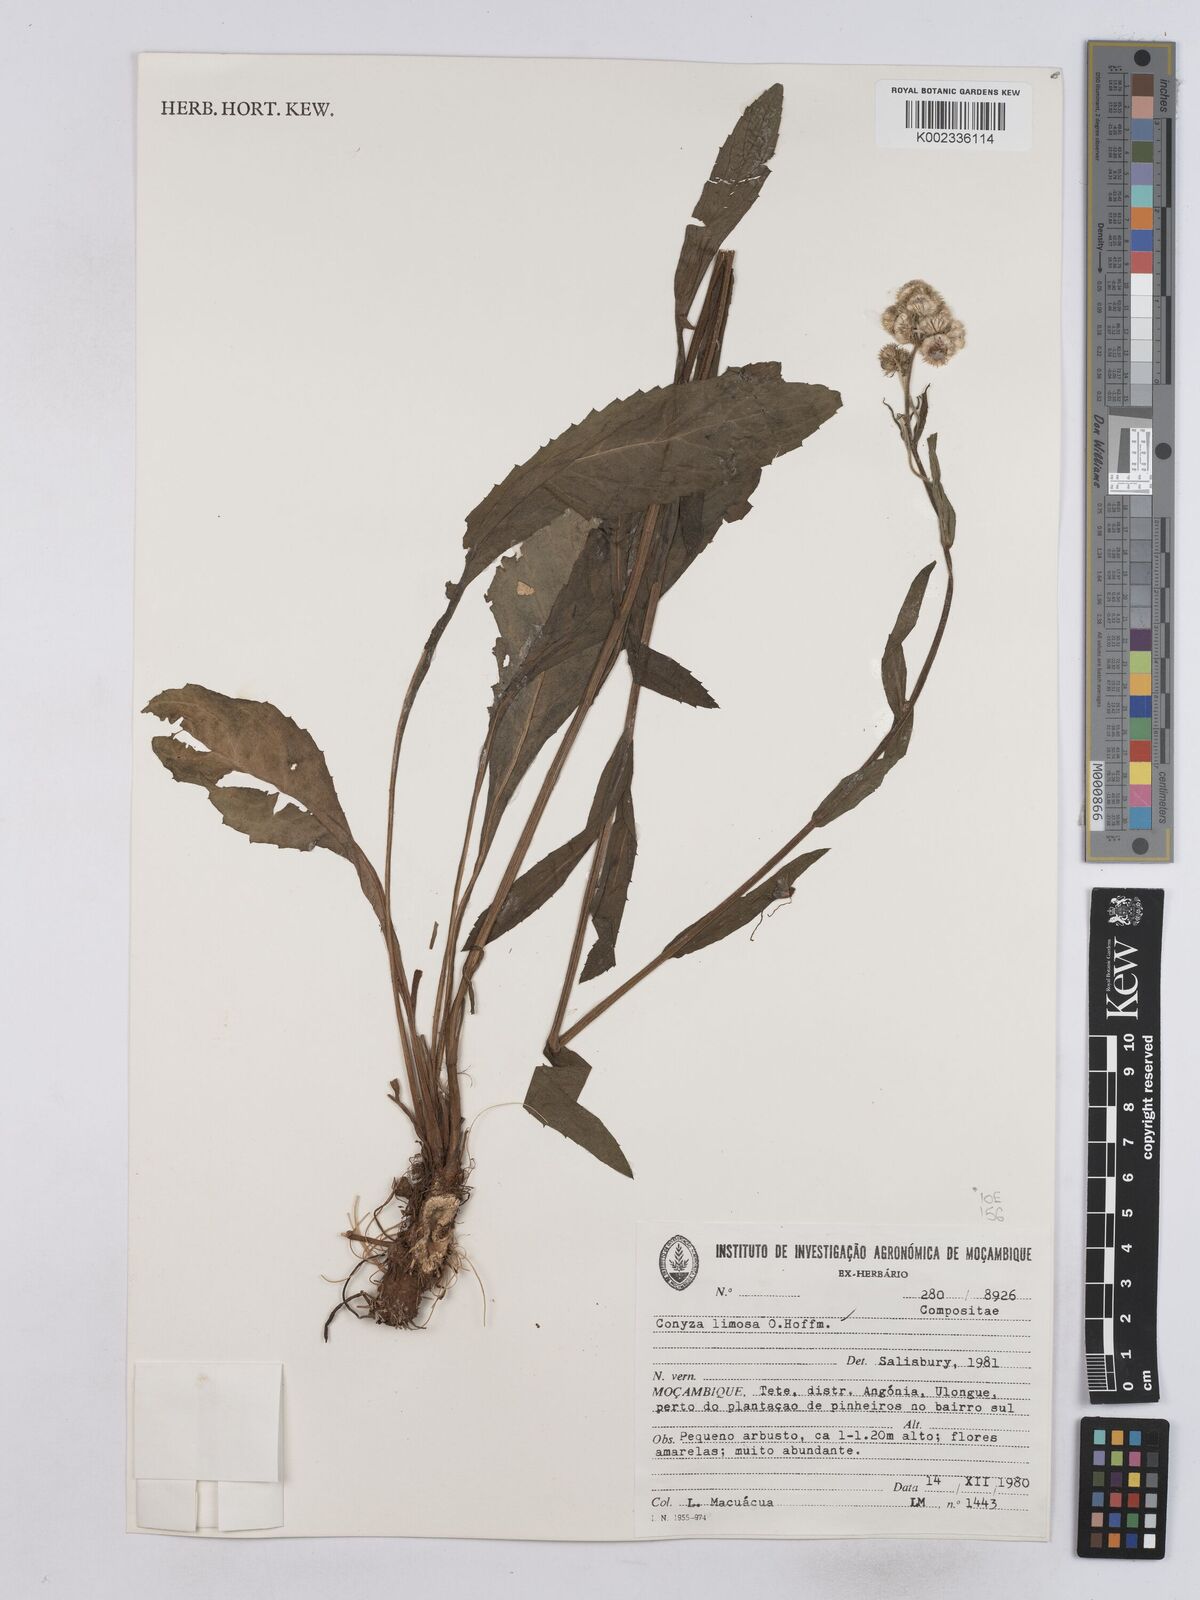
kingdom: Plantae
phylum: Tracheophyta
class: Magnoliopsida
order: Asterales
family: Asteraceae
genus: Conyza
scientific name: Conyza limosa
